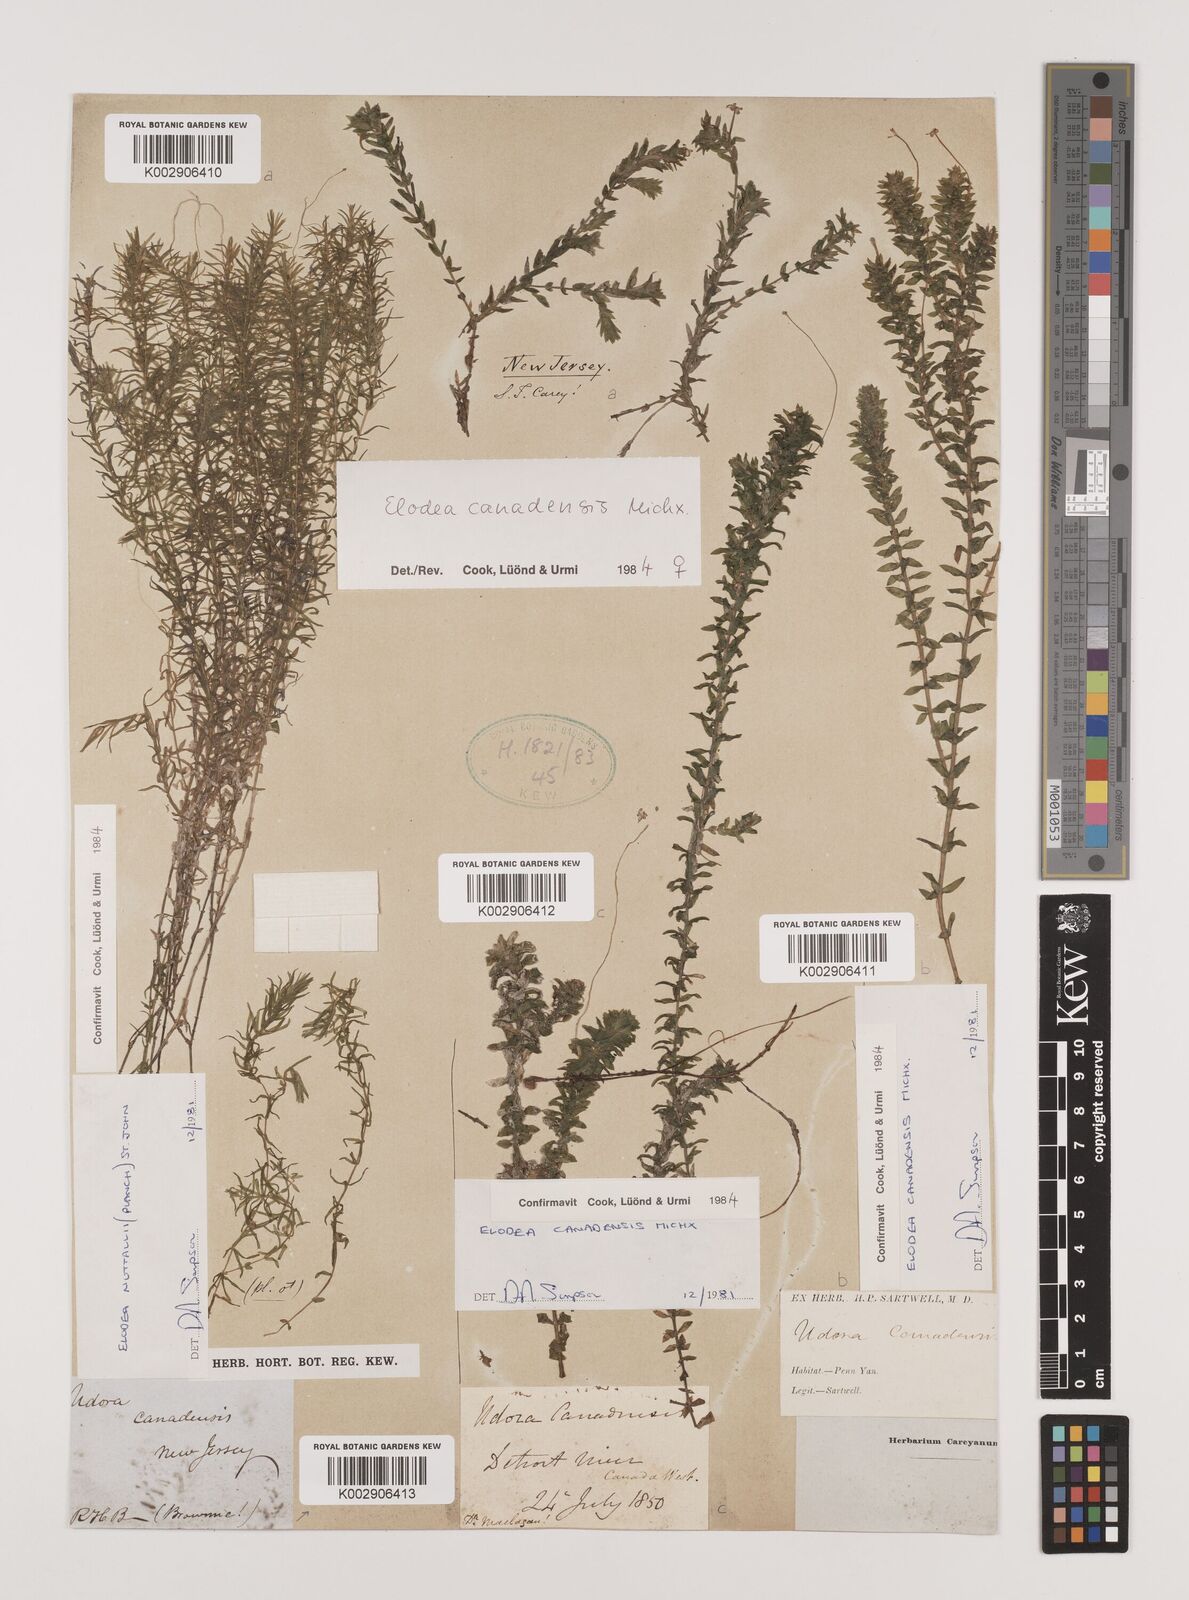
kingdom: Plantae
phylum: Tracheophyta
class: Liliopsida
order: Alismatales
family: Hydrocharitaceae
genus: Elodea
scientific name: Elodea canadensis
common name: Canadian waterweed
